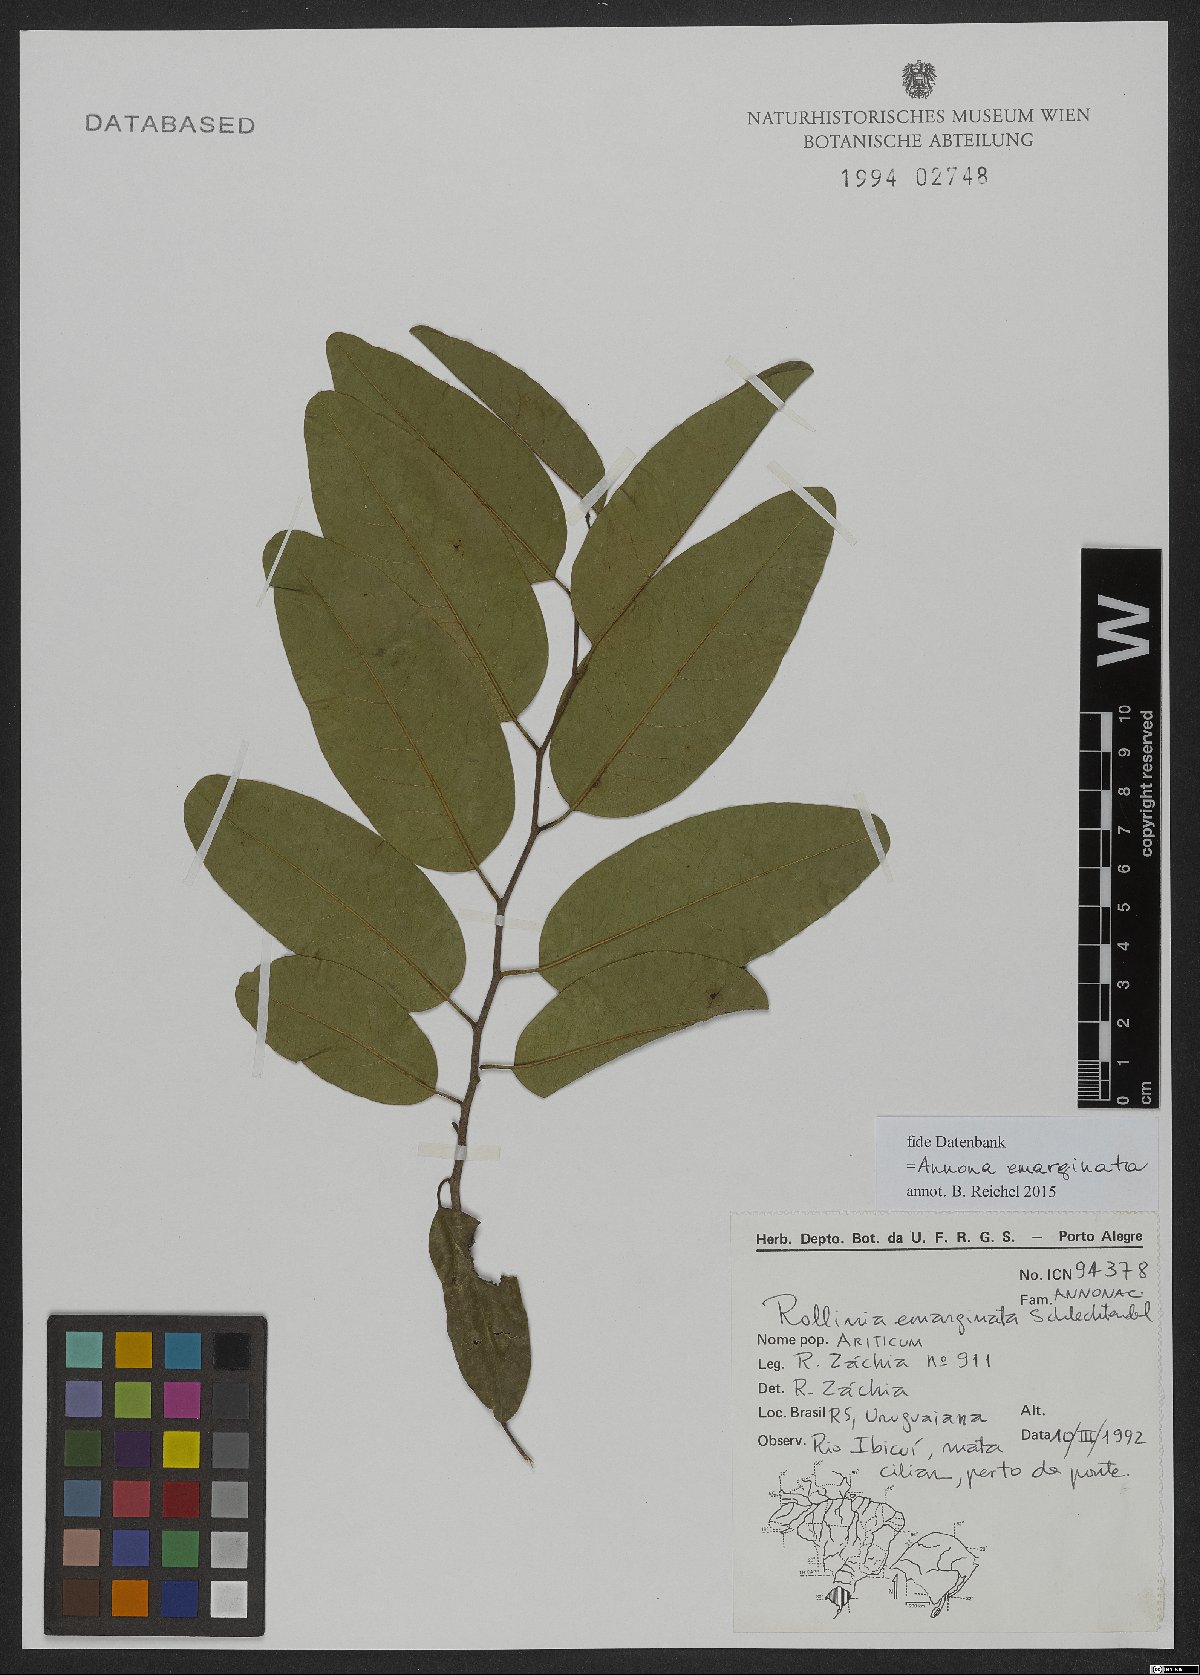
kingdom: Plantae
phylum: Tracheophyta
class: Magnoliopsida
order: Magnoliales
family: Annonaceae
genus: Annona
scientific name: Annona emarginata
